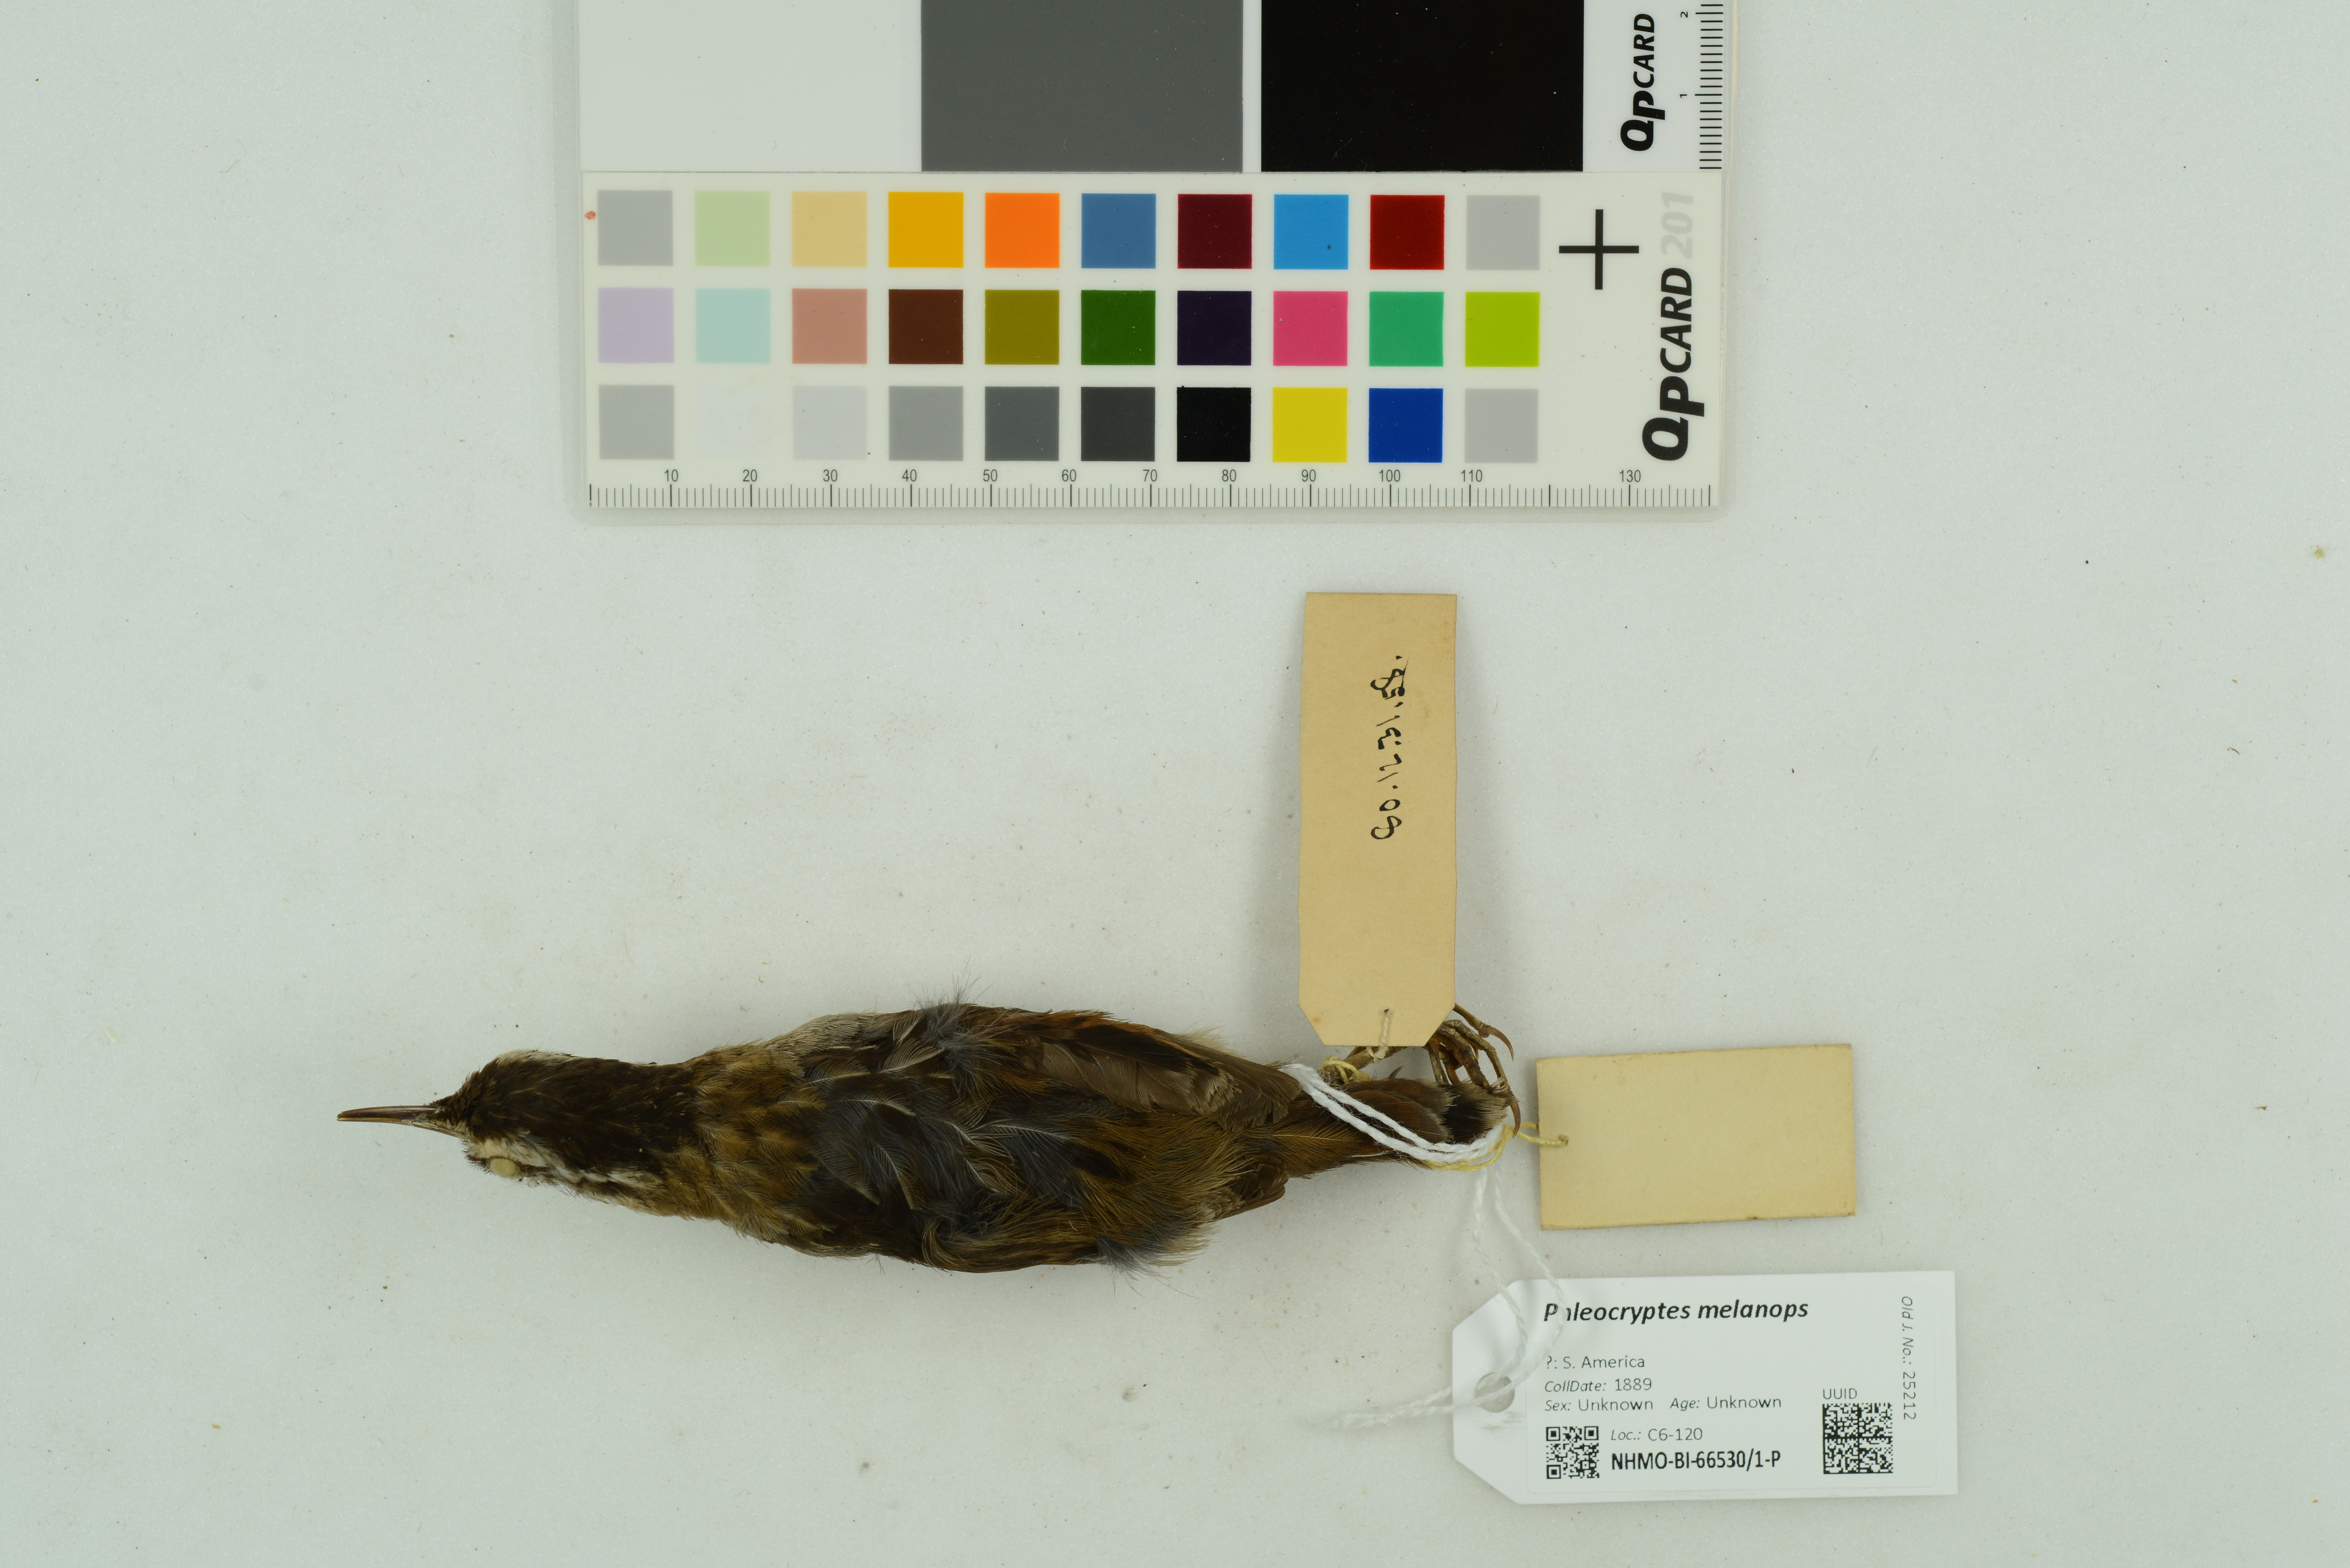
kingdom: Animalia
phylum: Chordata
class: Aves
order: Passeriformes
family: Furnariidae
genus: Phleocryptes
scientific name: Phleocryptes melanops
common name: Wren-like rushbird
